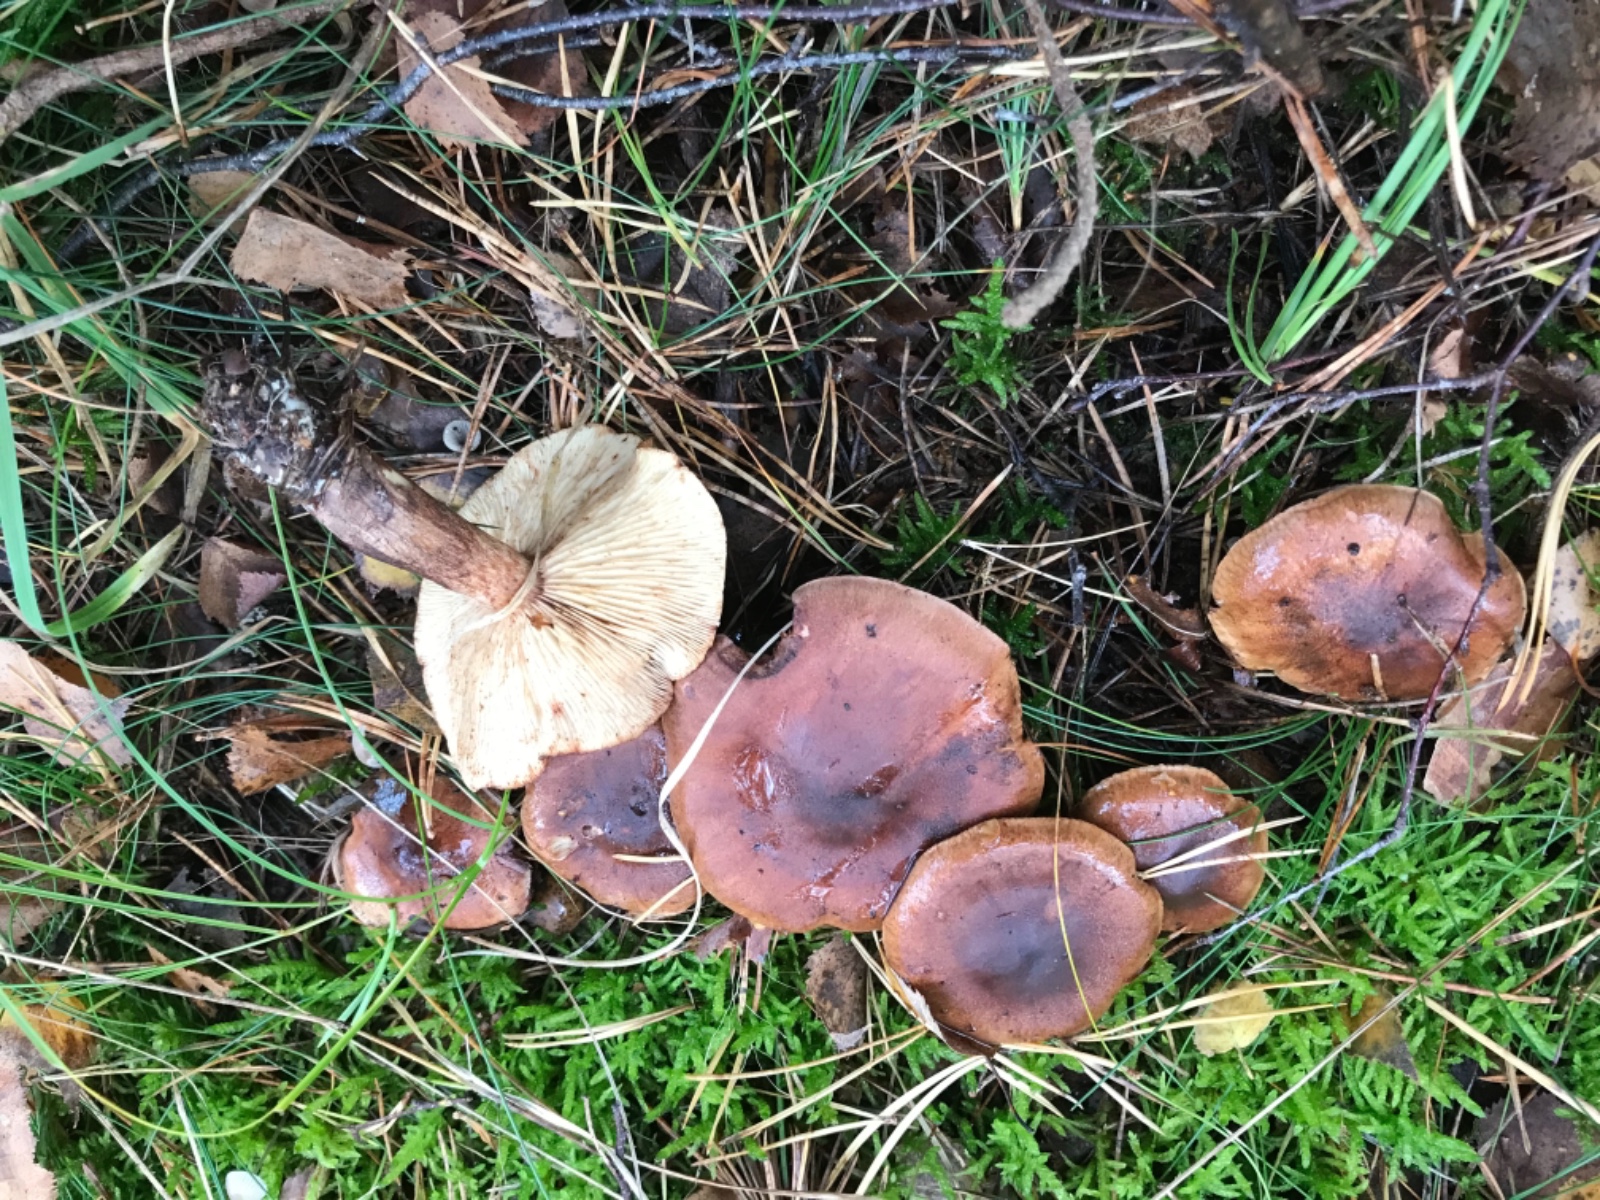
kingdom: Fungi
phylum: Basidiomycota
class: Agaricomycetes
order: Agaricales
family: Tricholomataceae
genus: Tricholoma
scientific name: Tricholoma fulvum
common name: birke-ridderhat
